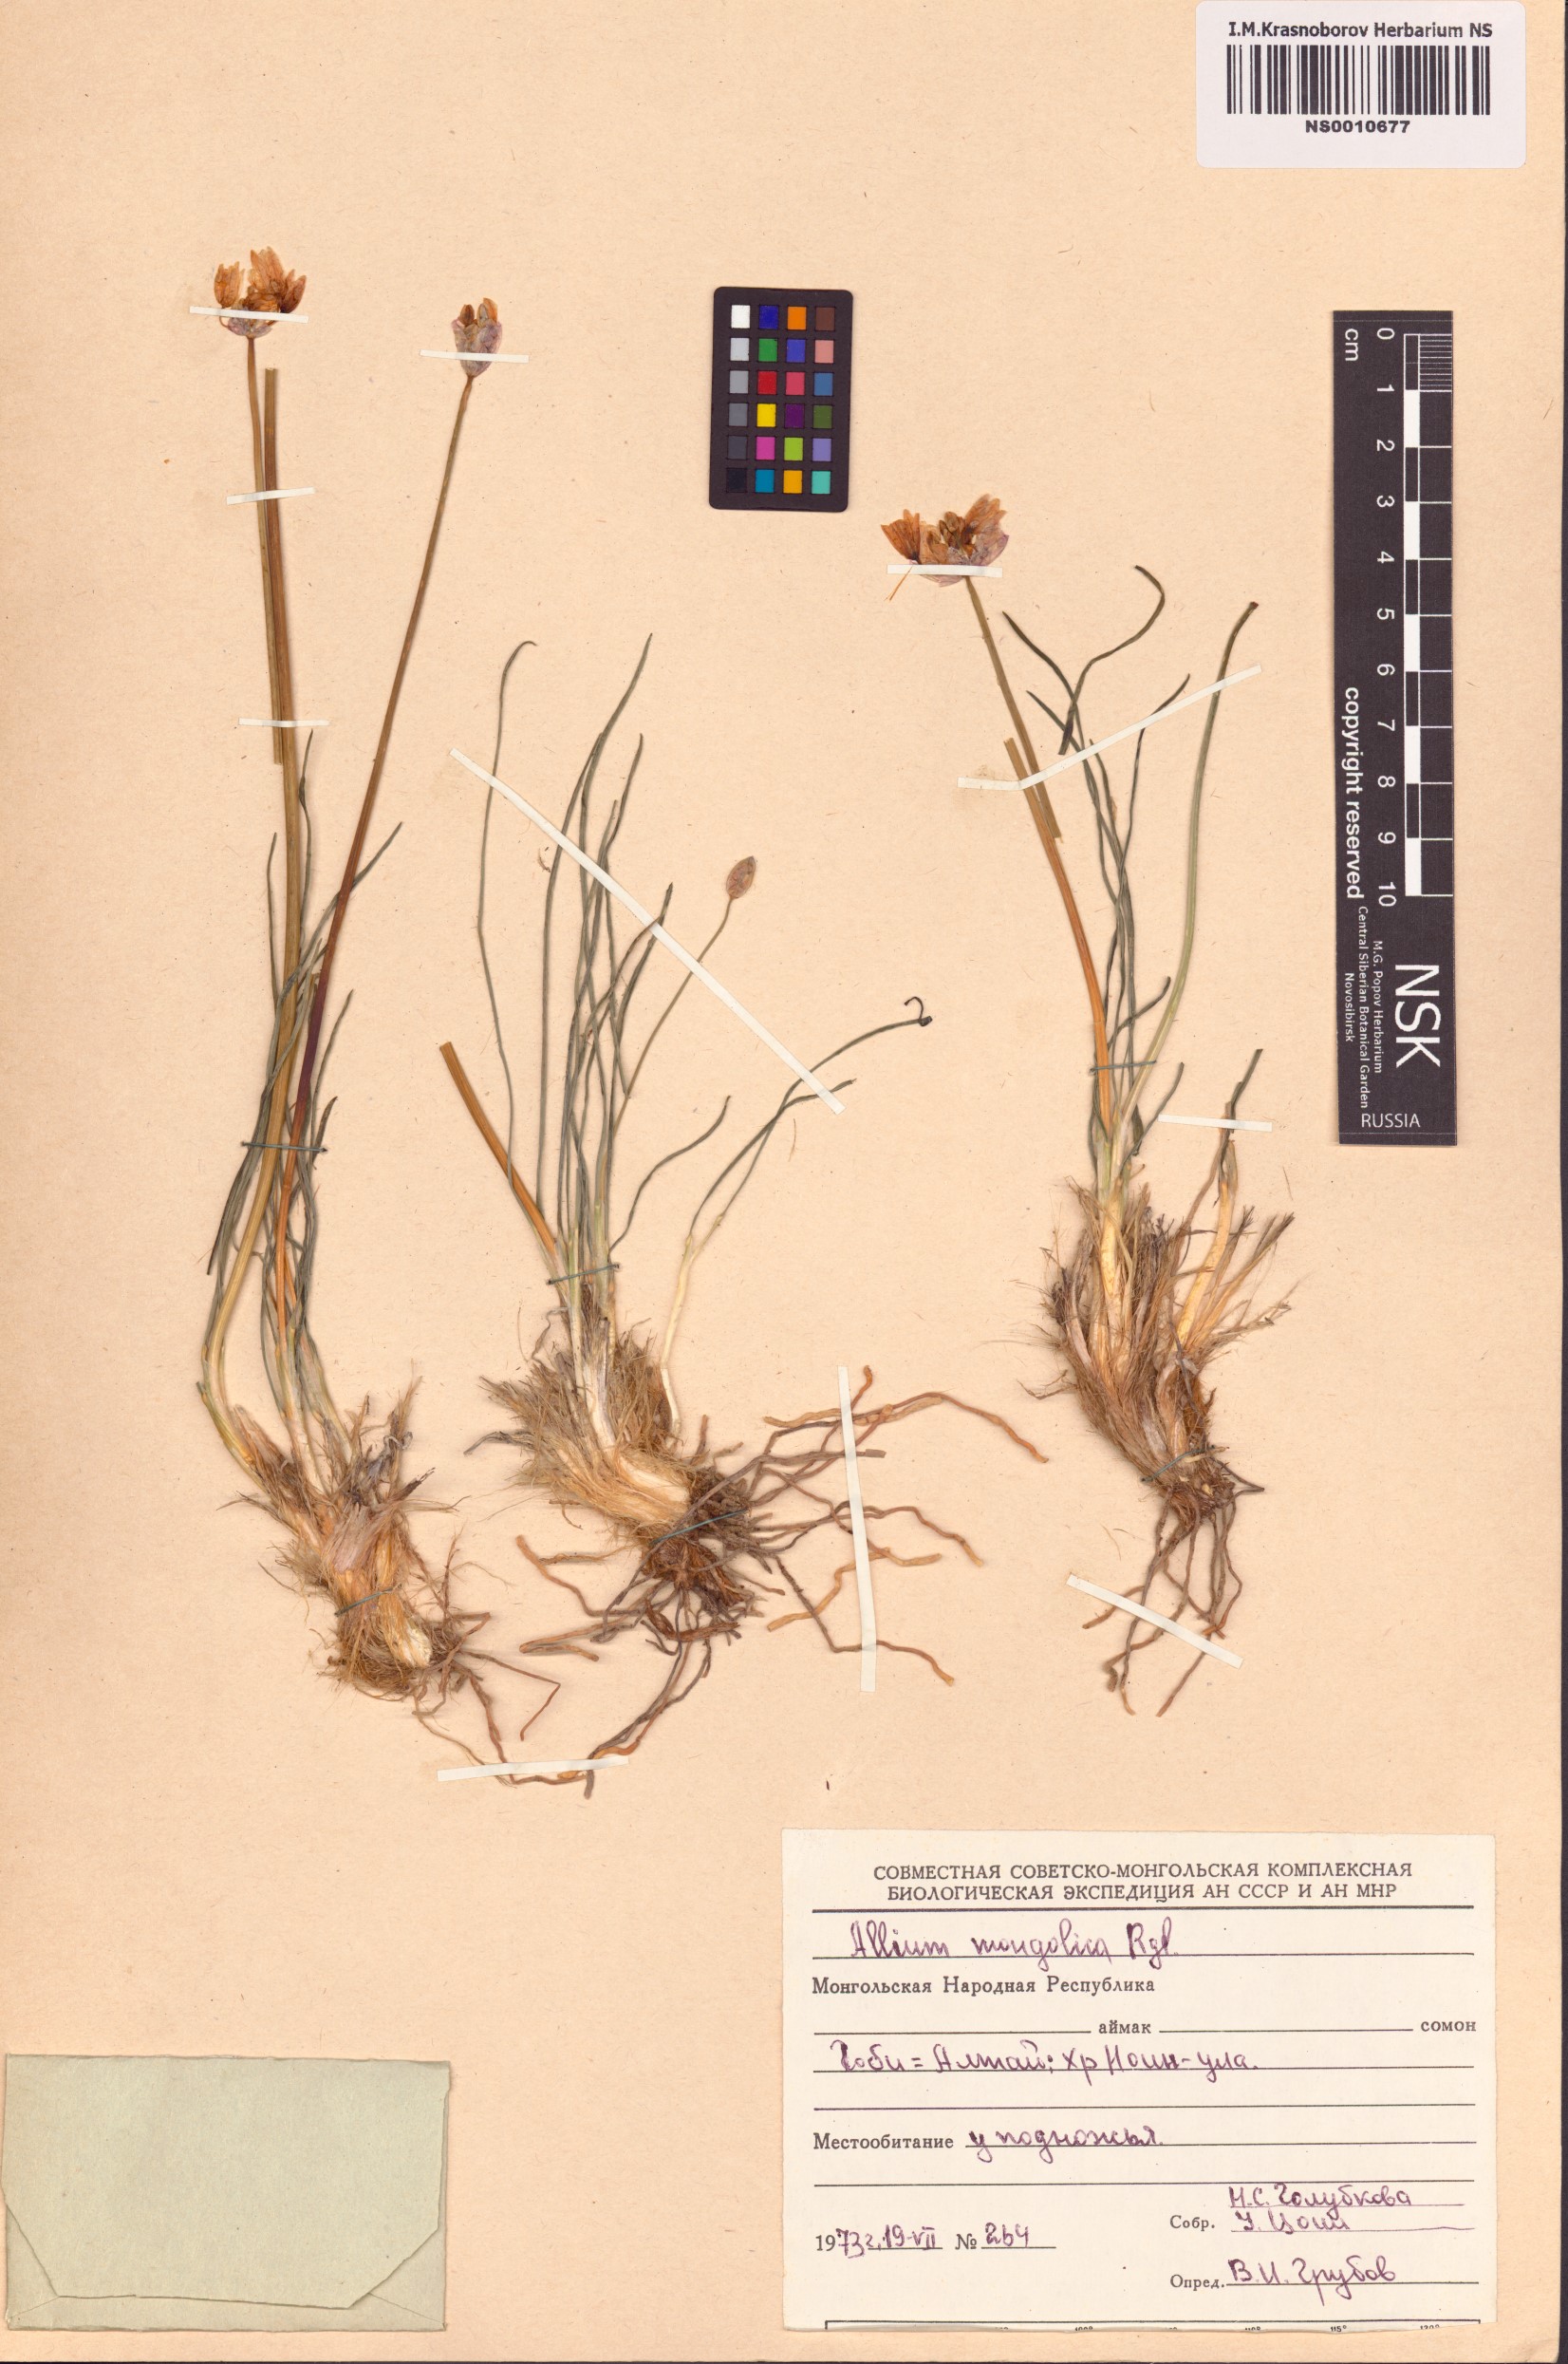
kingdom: Plantae
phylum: Tracheophyta
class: Liliopsida
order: Asparagales
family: Amaryllidaceae
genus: Allium
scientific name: Allium mongolicum
